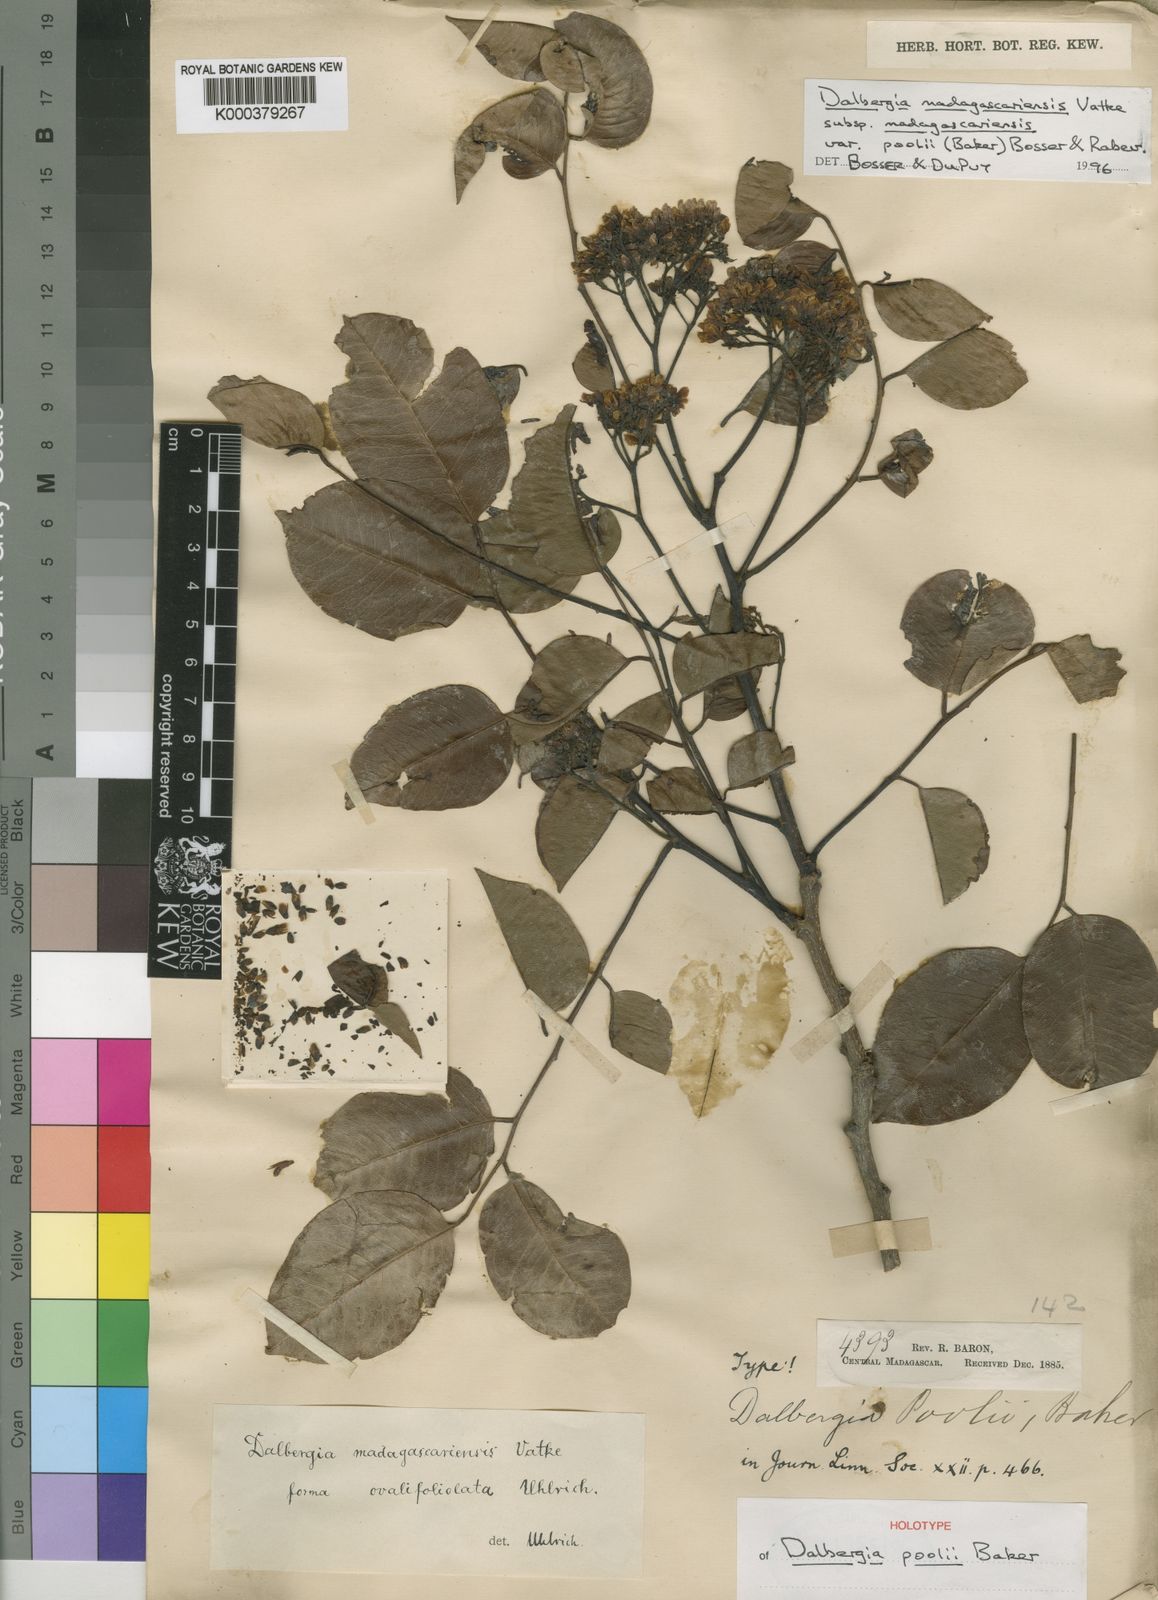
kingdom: Plantae
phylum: Tracheophyta
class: Magnoliopsida
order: Fabales
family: Fabaceae
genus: Dalbergia
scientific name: Dalbergia madagascariensis
